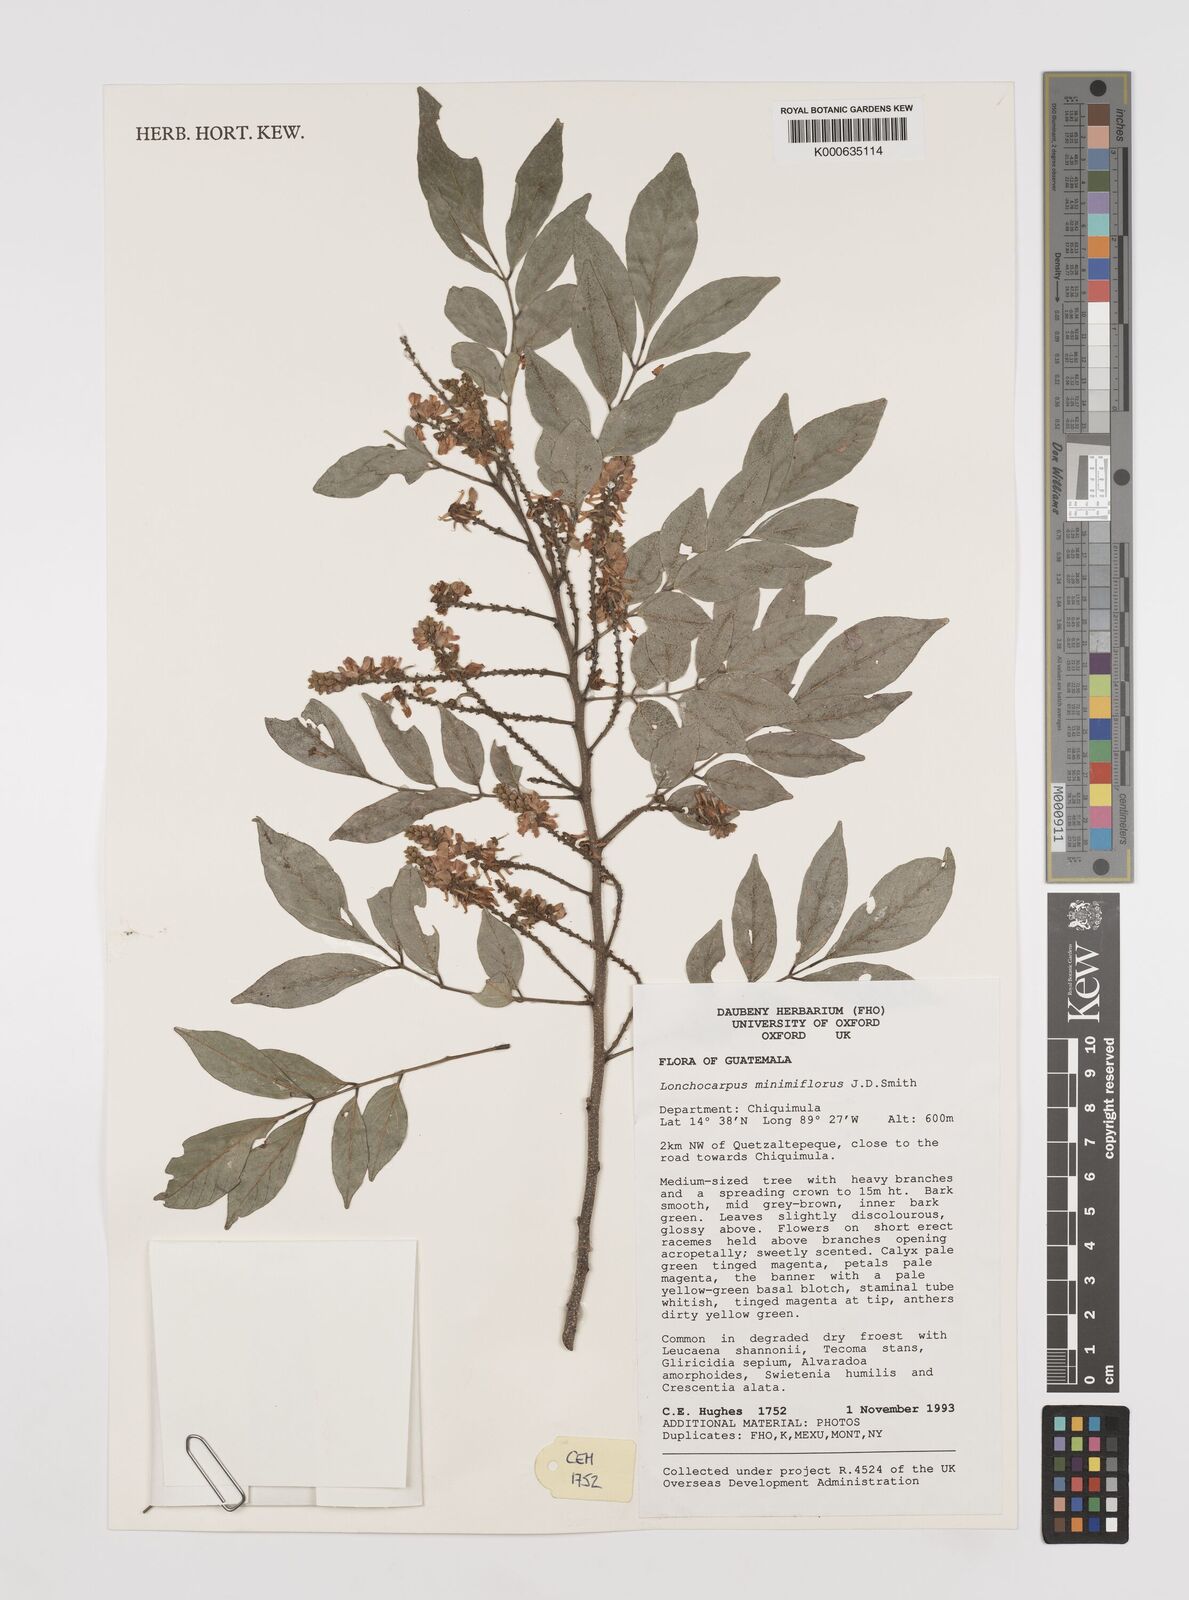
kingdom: Plantae
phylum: Tracheophyta
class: Magnoliopsida
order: Fabales
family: Fabaceae
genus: Lonchocarpus
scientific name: Lonchocarpus
